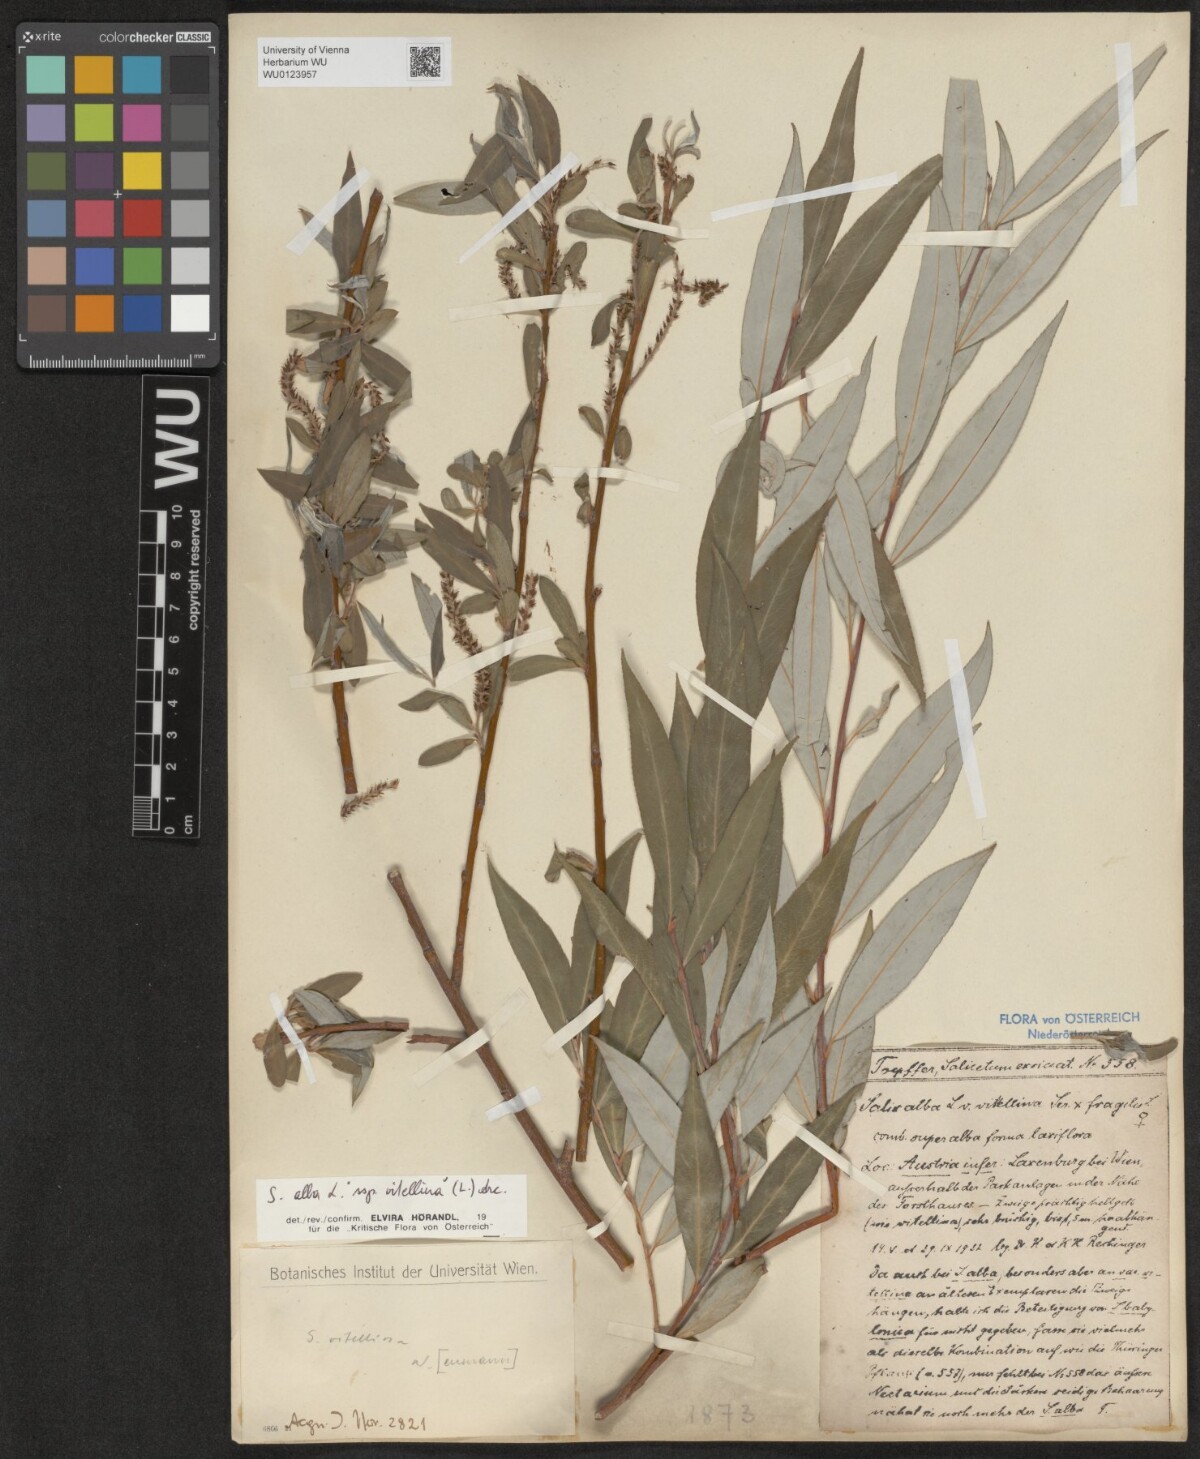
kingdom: Plantae
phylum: Tracheophyta
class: Magnoliopsida
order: Malpighiales
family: Salicaceae
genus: Salix
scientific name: Salix alba
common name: White willow
